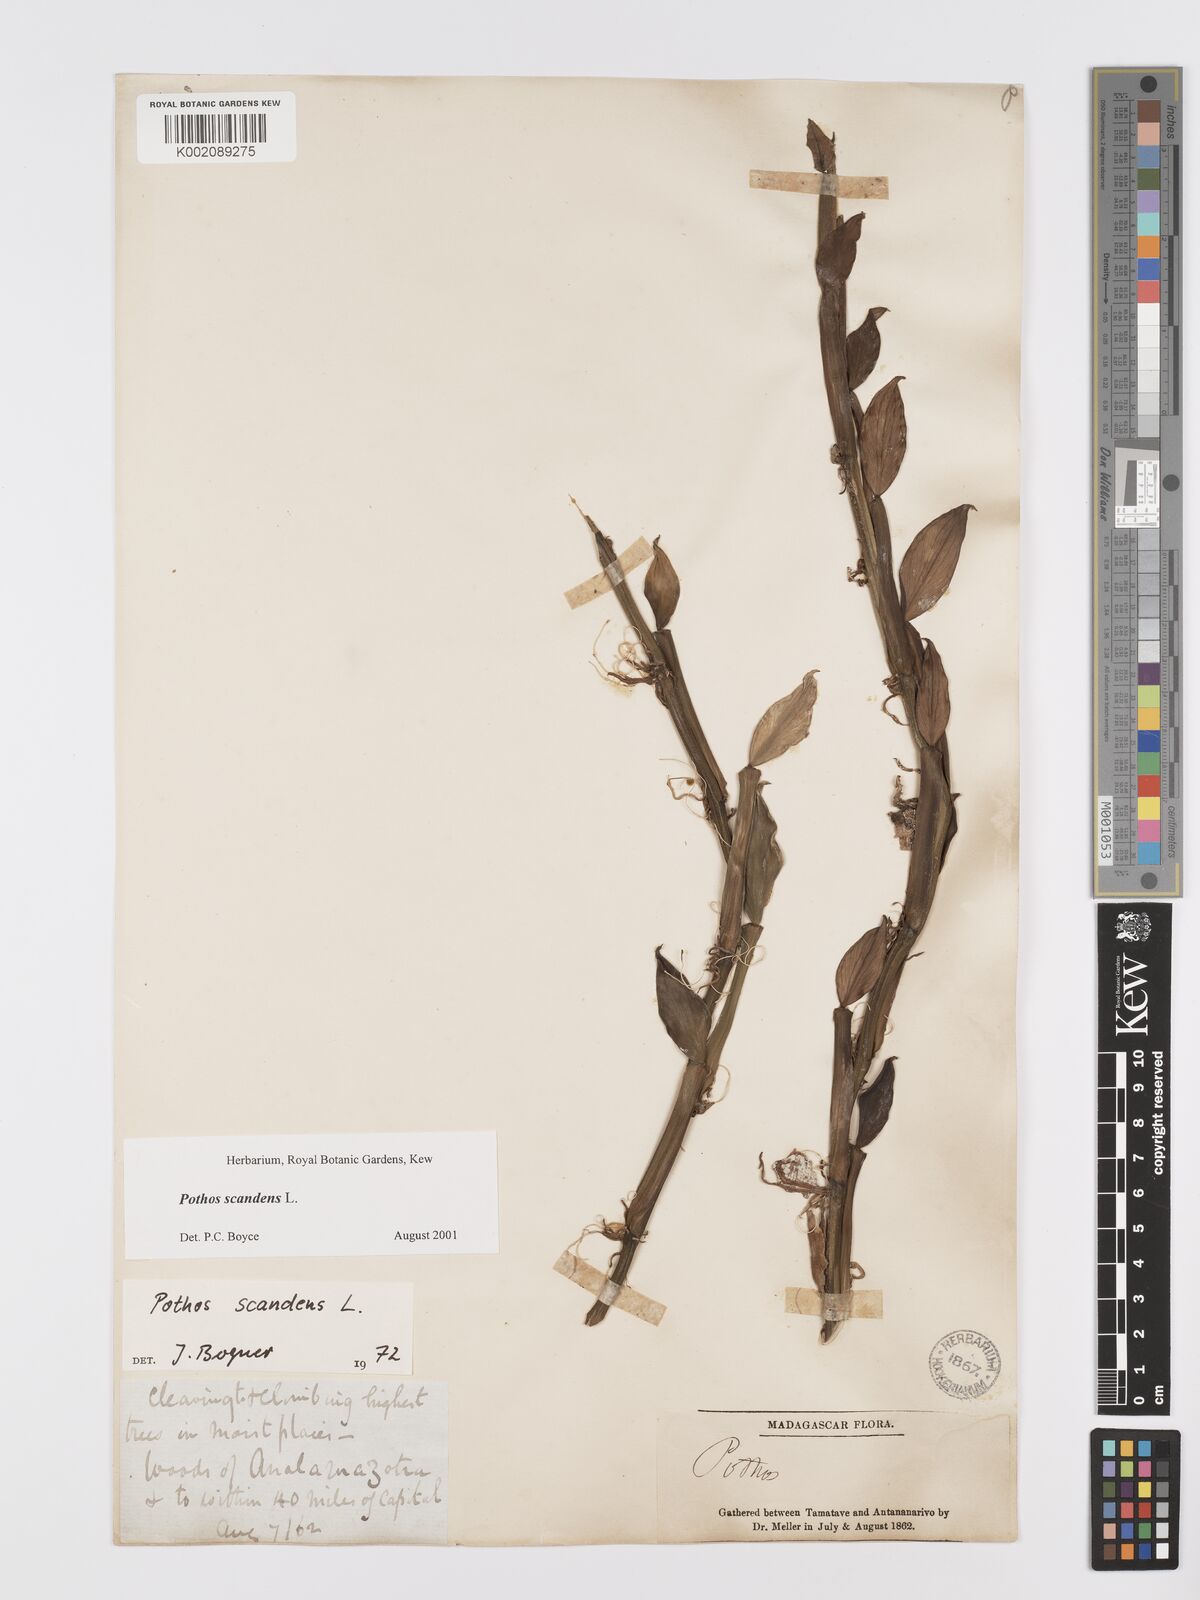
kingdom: Plantae
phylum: Tracheophyta
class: Liliopsida
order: Alismatales
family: Araceae
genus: Pothos
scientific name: Pothos scandens
